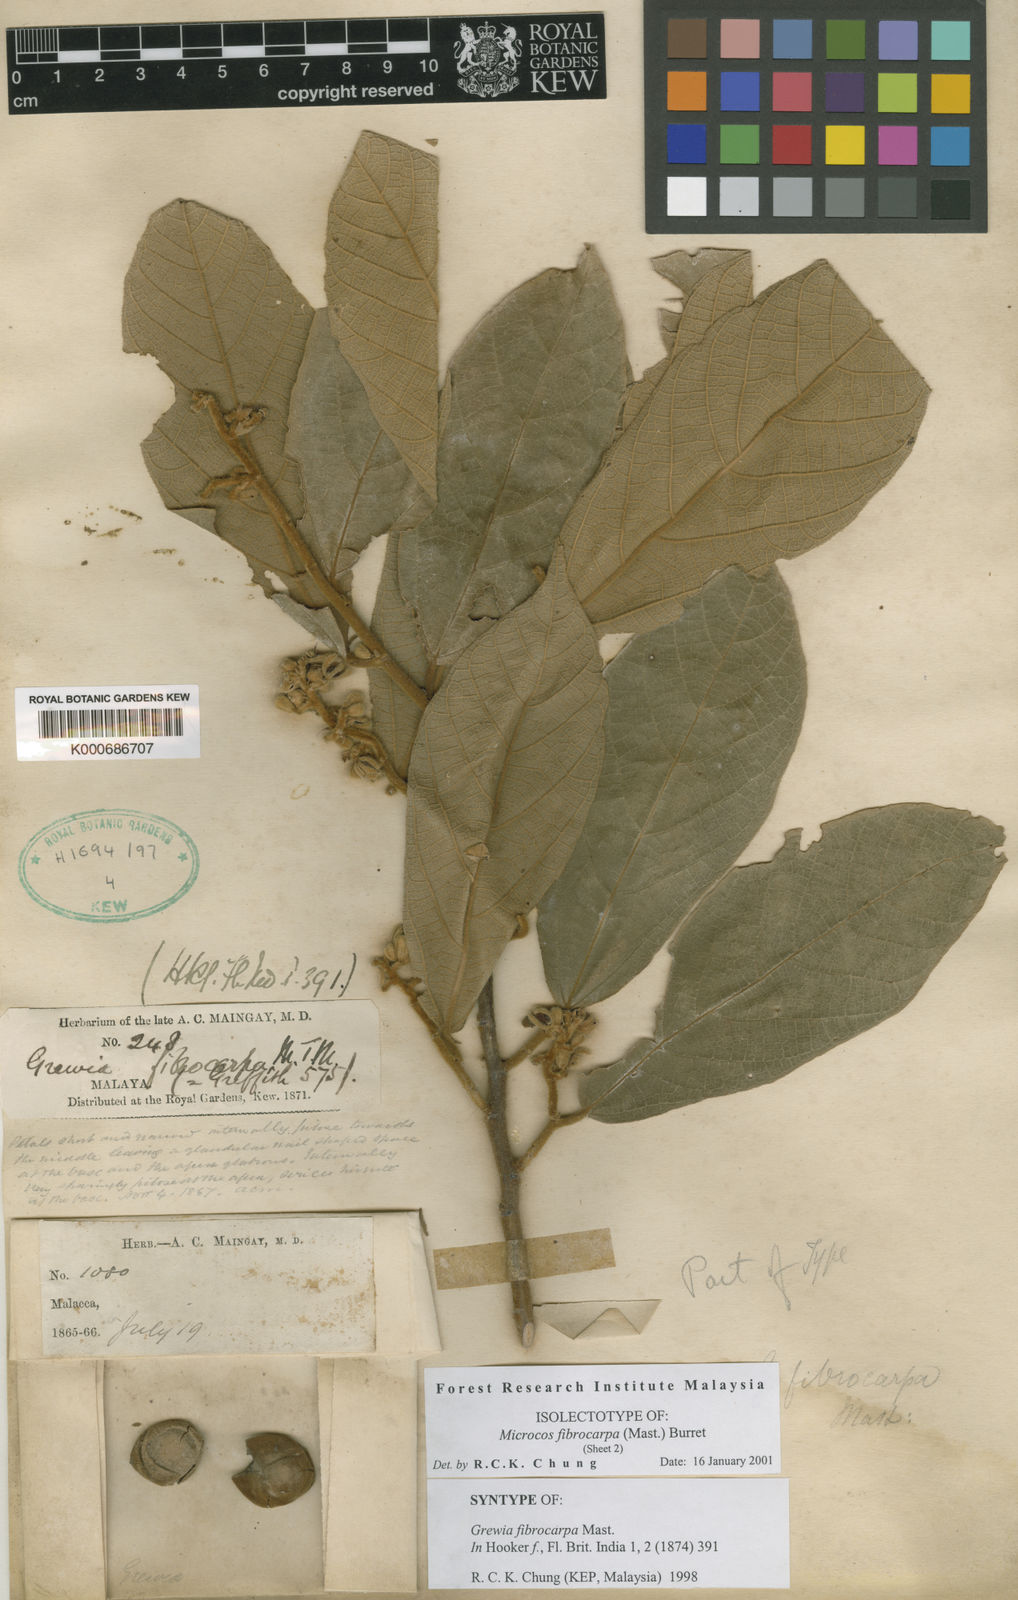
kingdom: Plantae
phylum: Tracheophyta
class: Magnoliopsida
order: Malvales
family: Malvaceae
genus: Microcos
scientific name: Microcos fibrocarpa
